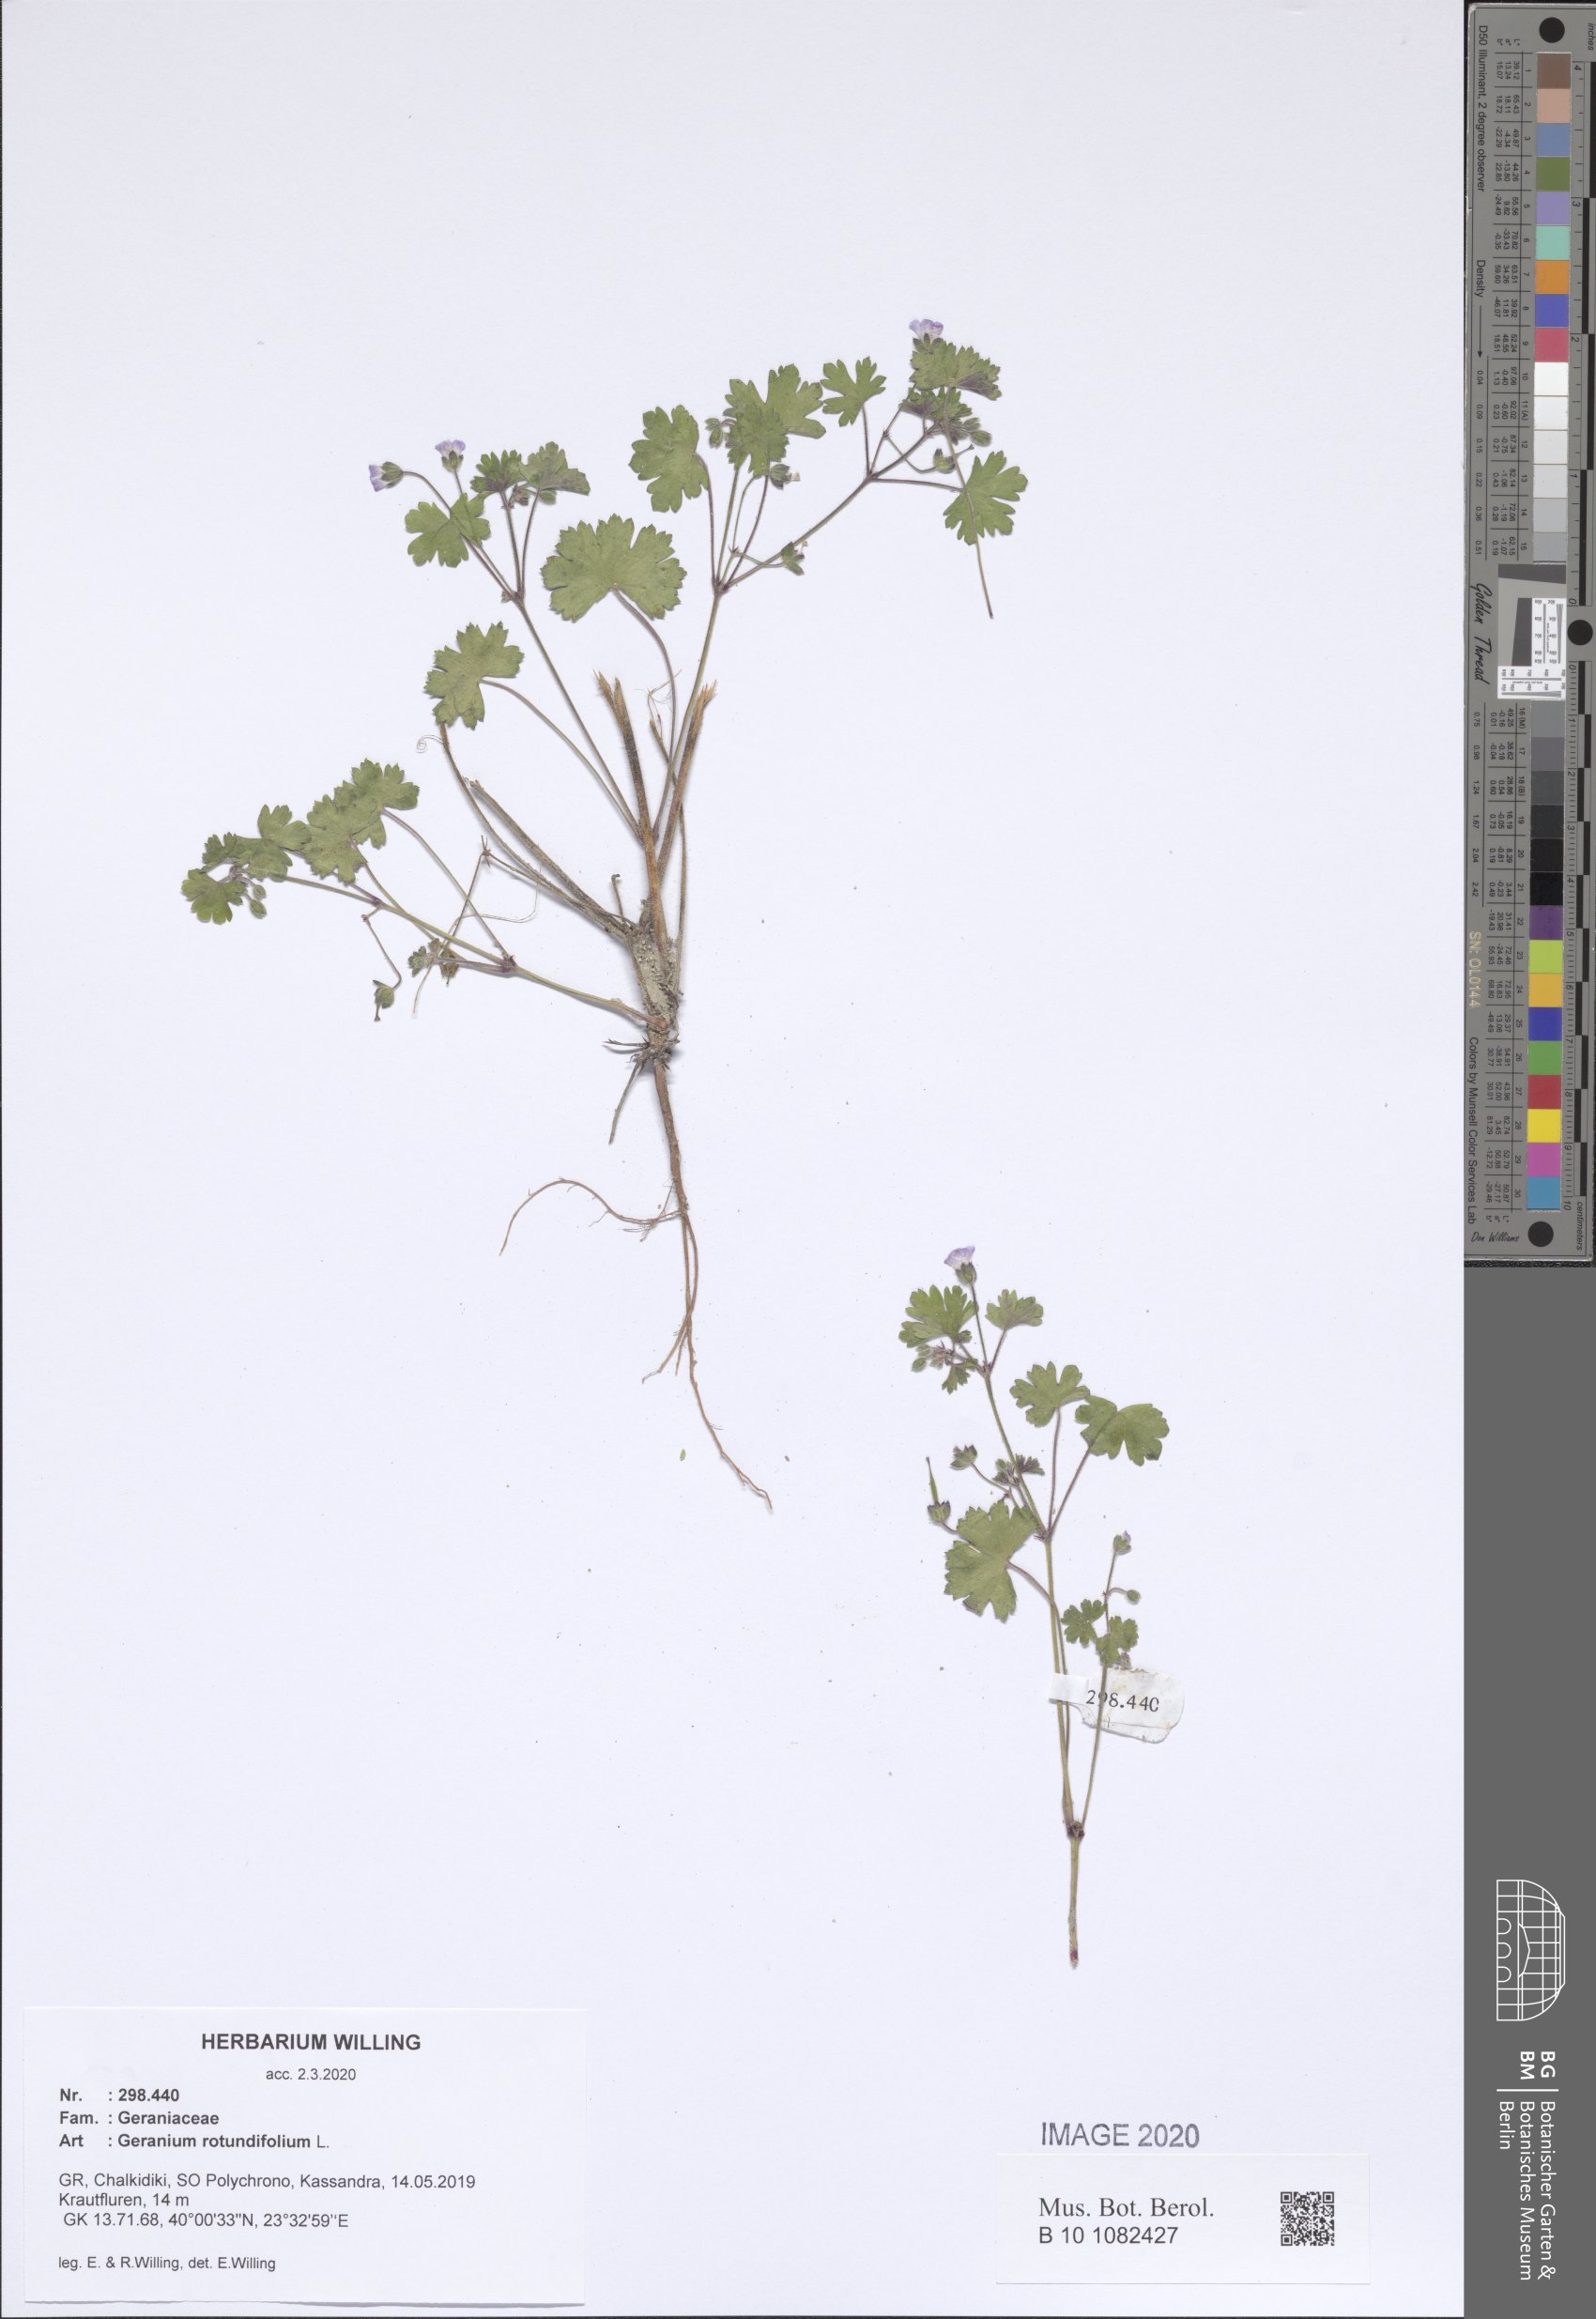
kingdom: Plantae
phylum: Tracheophyta
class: Magnoliopsida
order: Geraniales
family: Geraniaceae
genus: Geranium
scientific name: Geranium rotundifolium
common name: Round-leaved crane's-bill
